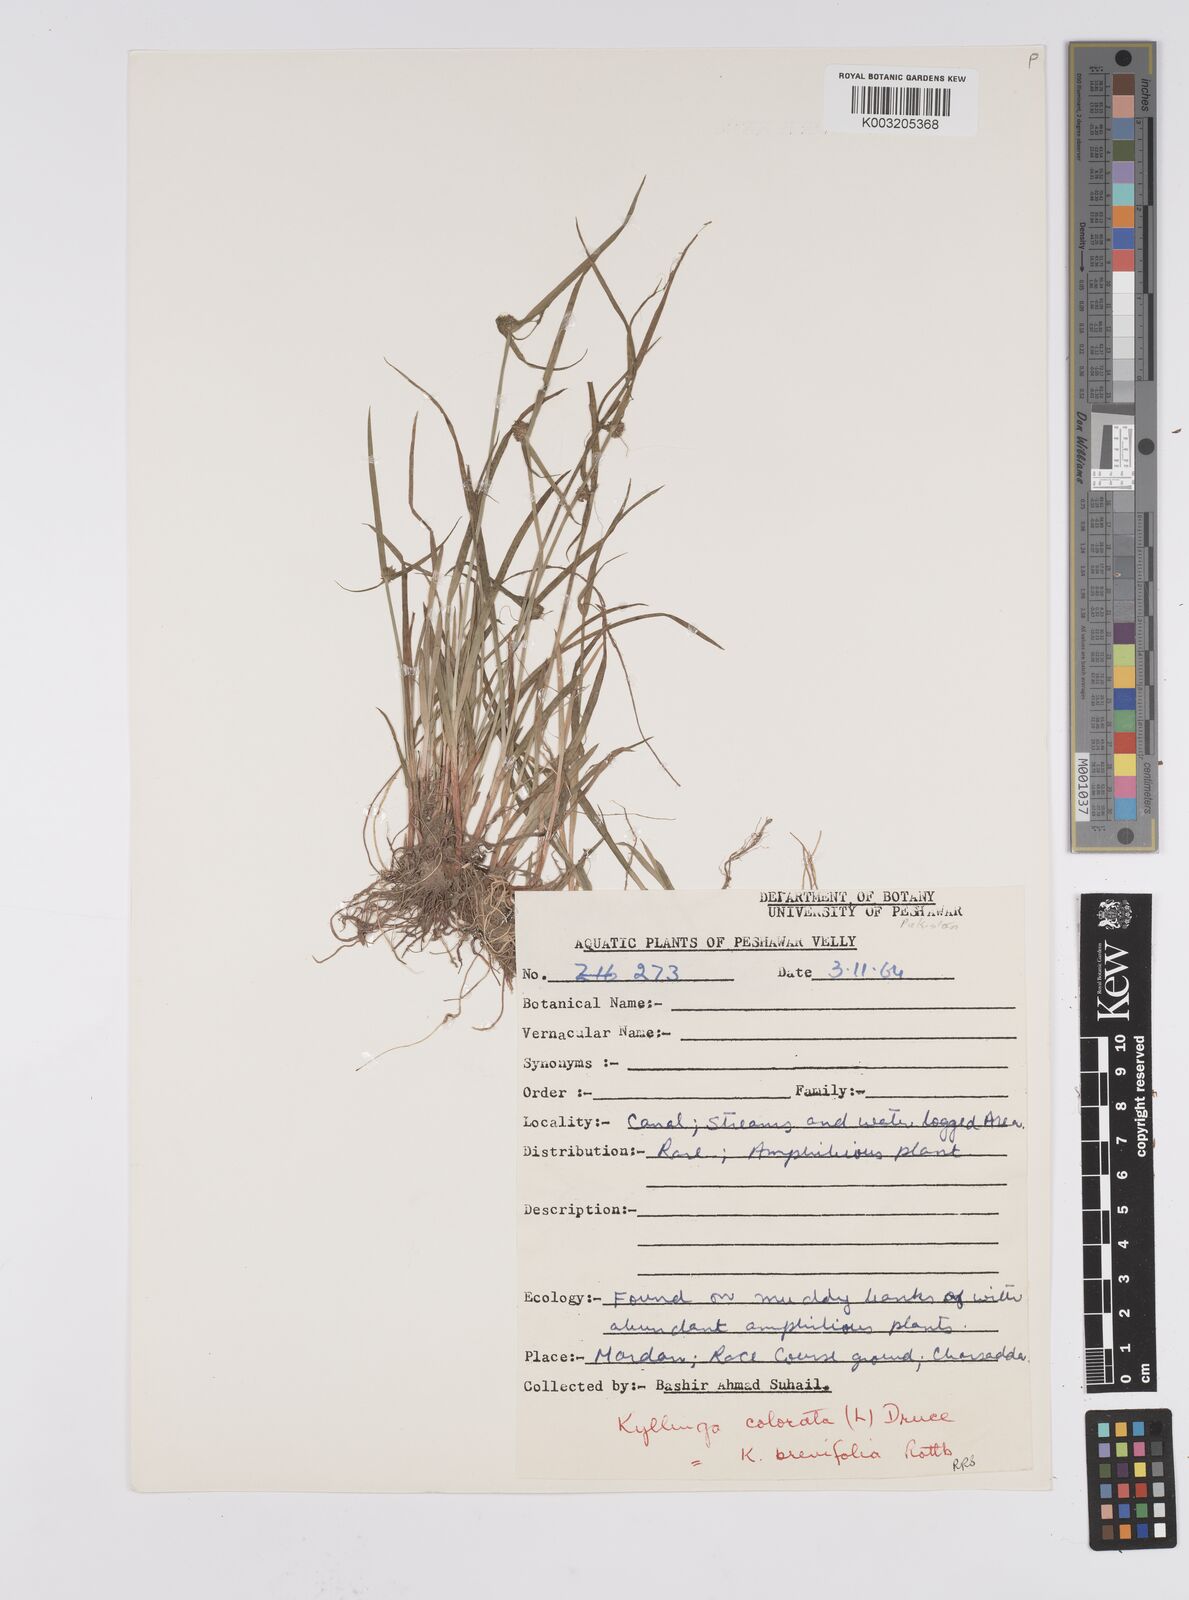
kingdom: Plantae
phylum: Tracheophyta
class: Liliopsida
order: Poales
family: Cyperaceae
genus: Cyperus
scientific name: Cyperus brevifolius
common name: Globe kyllinga
